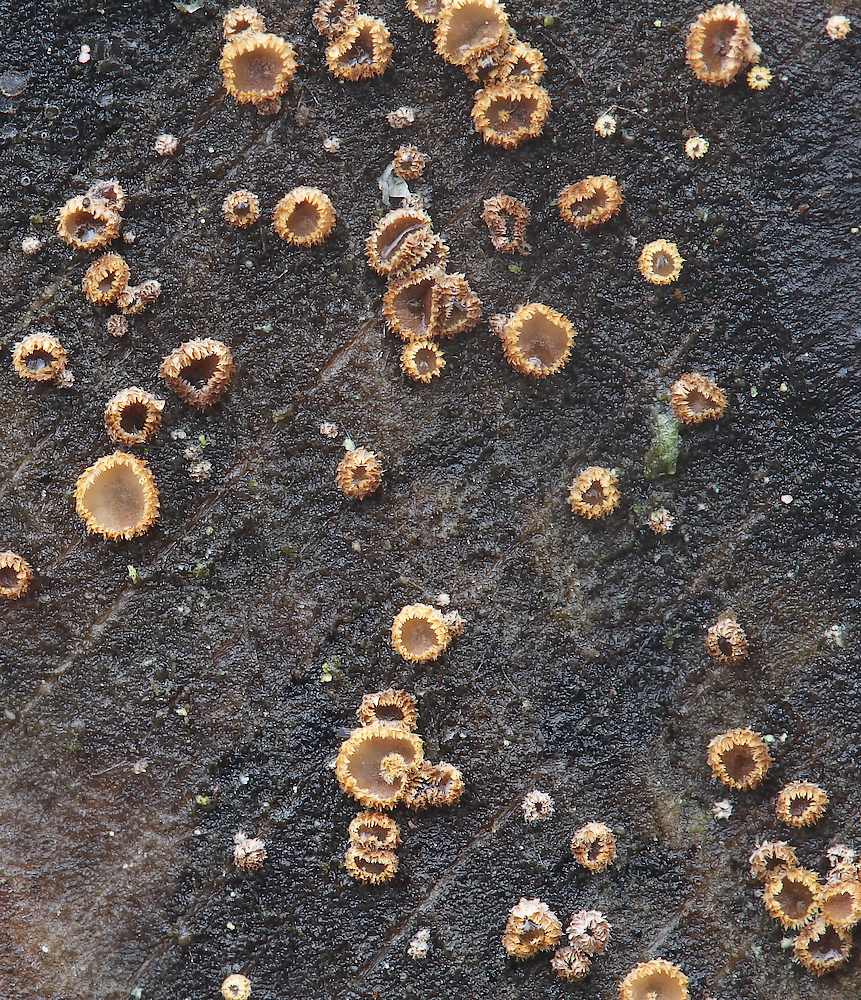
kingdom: Fungi
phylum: Ascomycota
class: Leotiomycetes
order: Helotiales
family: Lachnaceae
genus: Trichopeziza
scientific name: Trichopeziza subsulphurea
